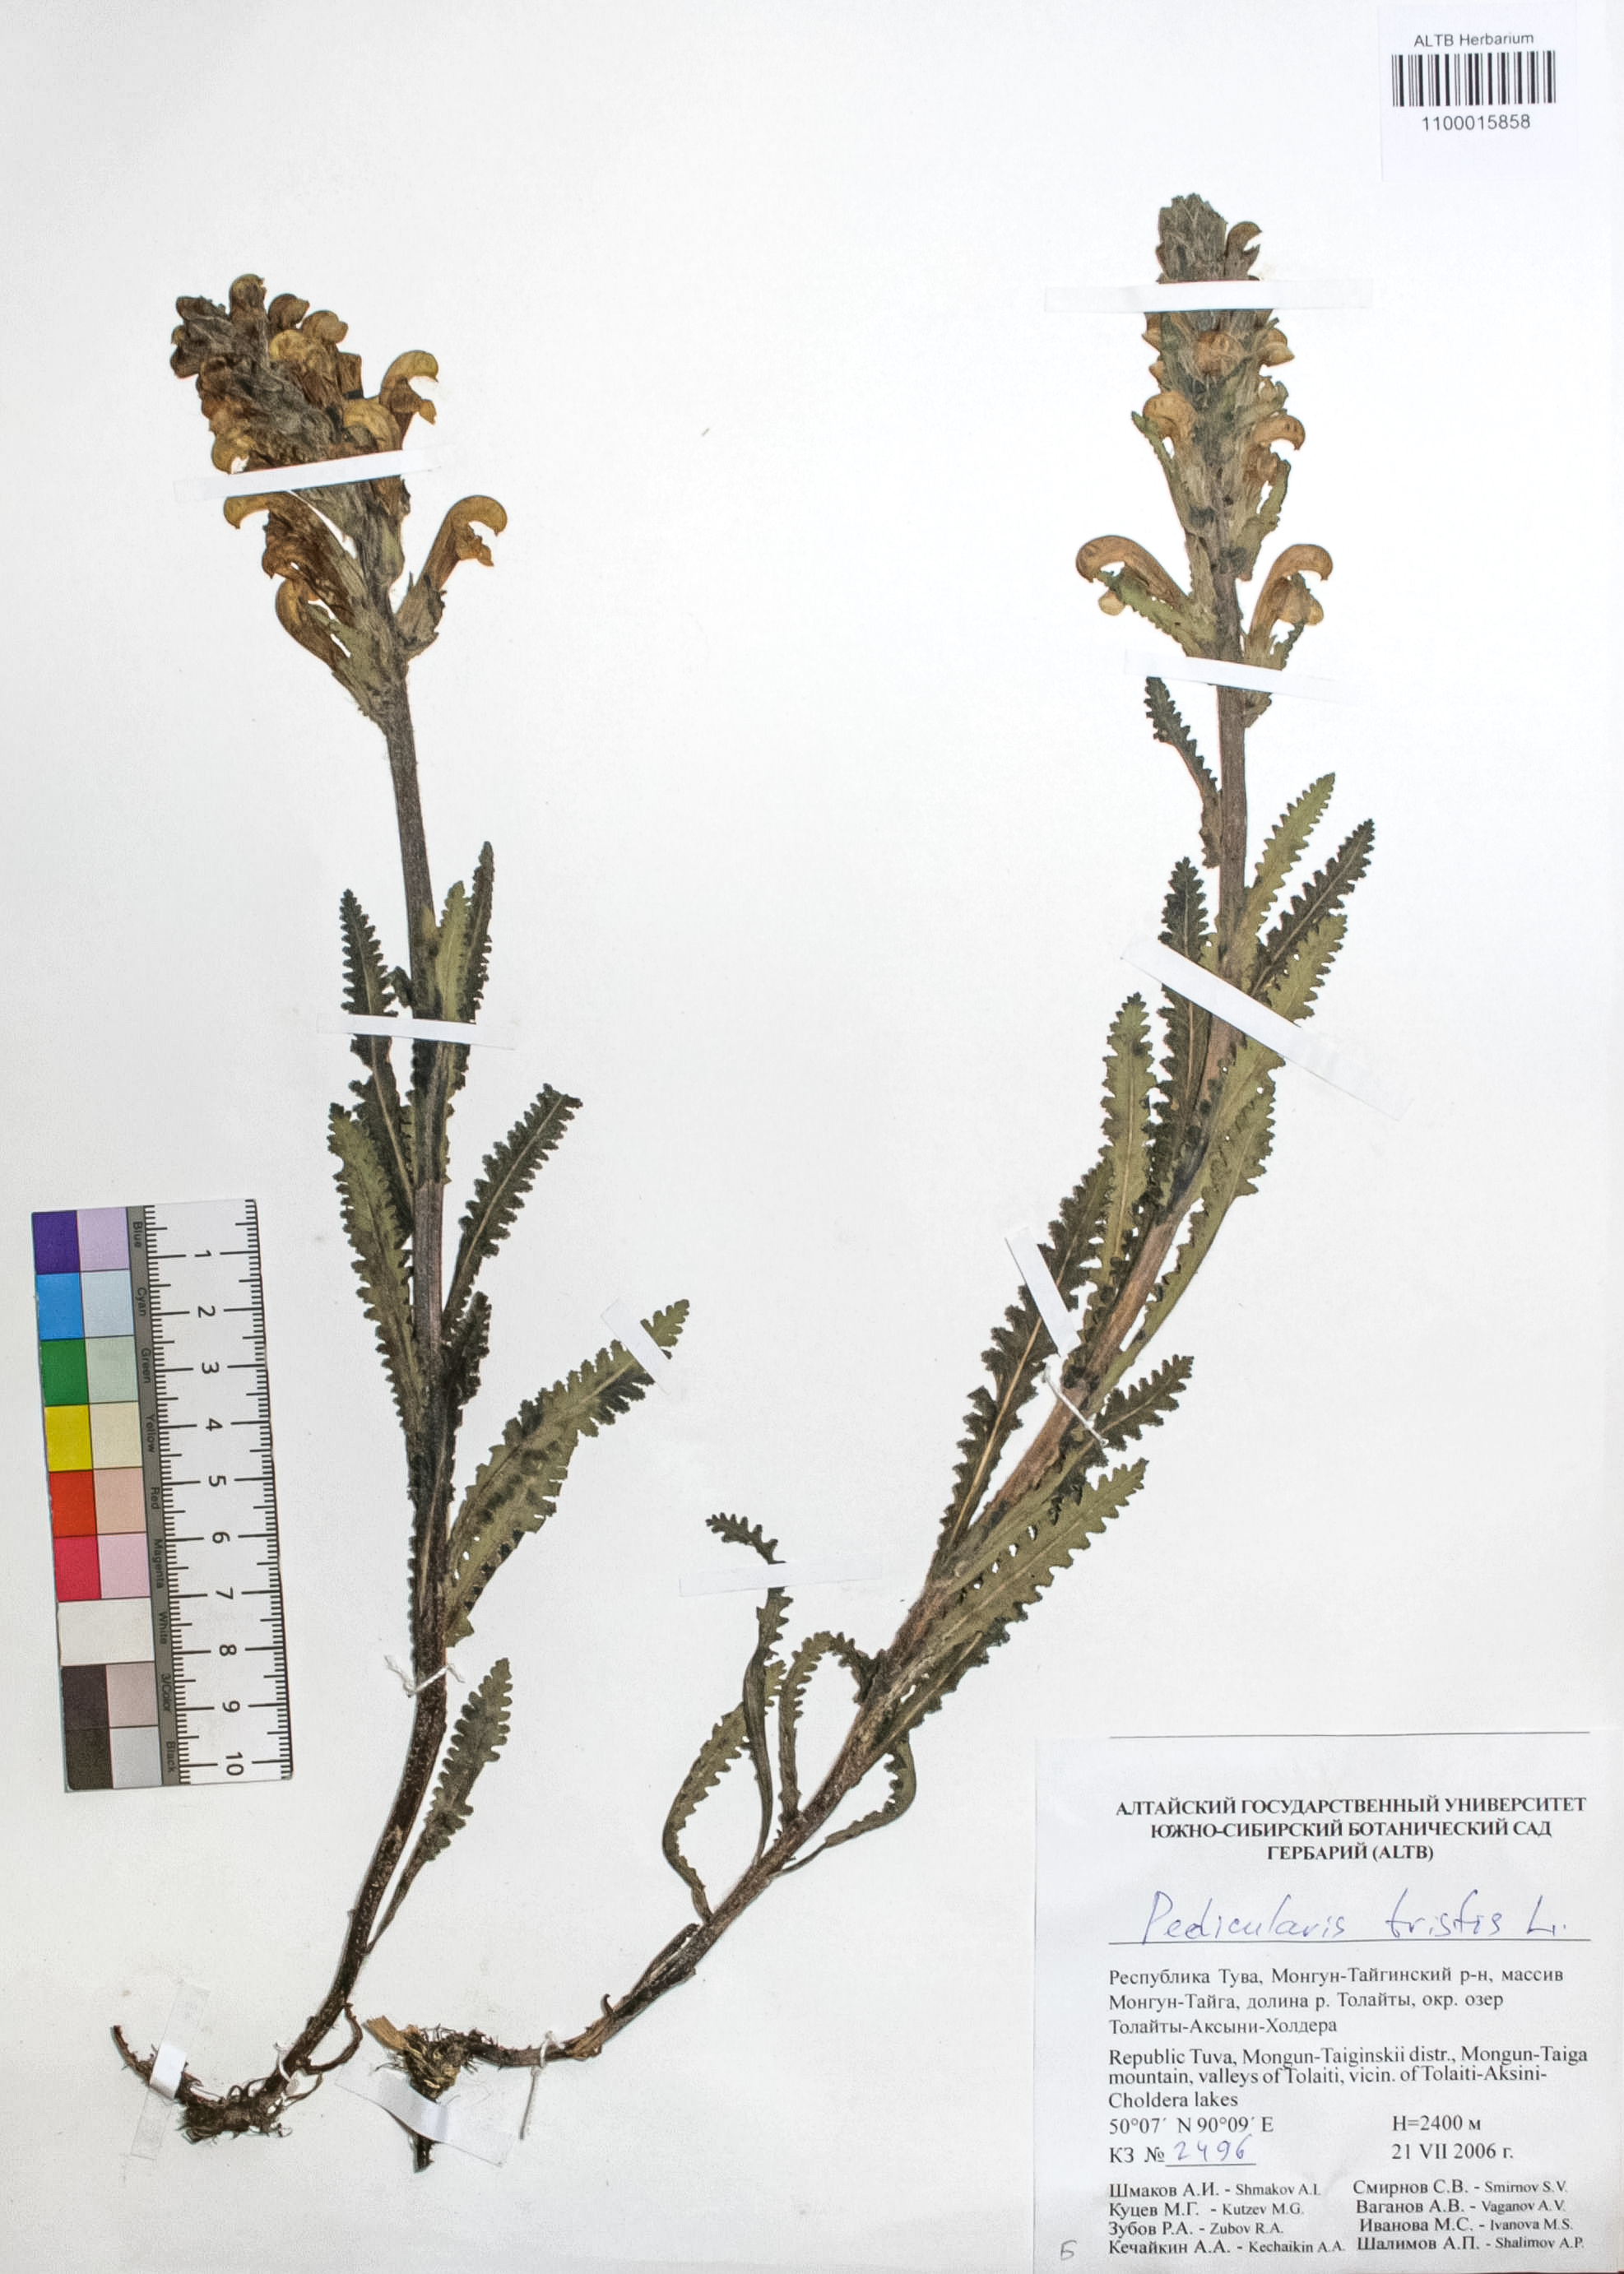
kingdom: Plantae
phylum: Tracheophyta
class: Magnoliopsida
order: Lamiales
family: Orobanchaceae
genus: Pedicularis
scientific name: Pedicularis tristis
